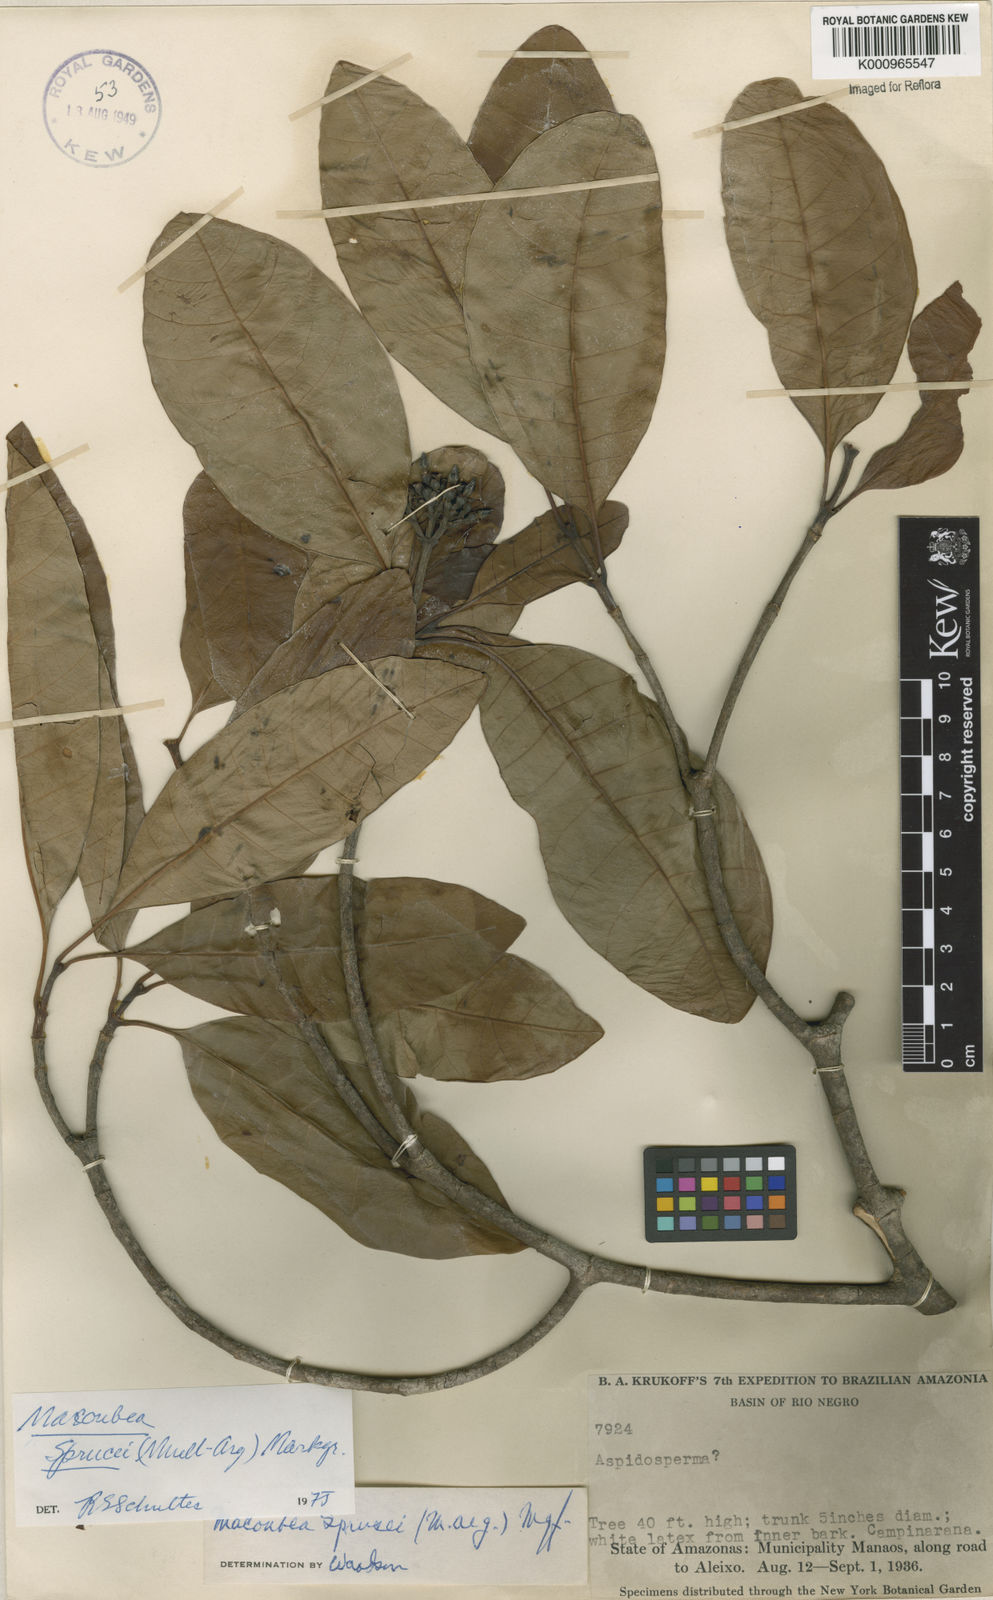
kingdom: Plantae
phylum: Tracheophyta
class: Magnoliopsida
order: Gentianales
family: Apocynaceae
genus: Macoubea
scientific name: Macoubea
